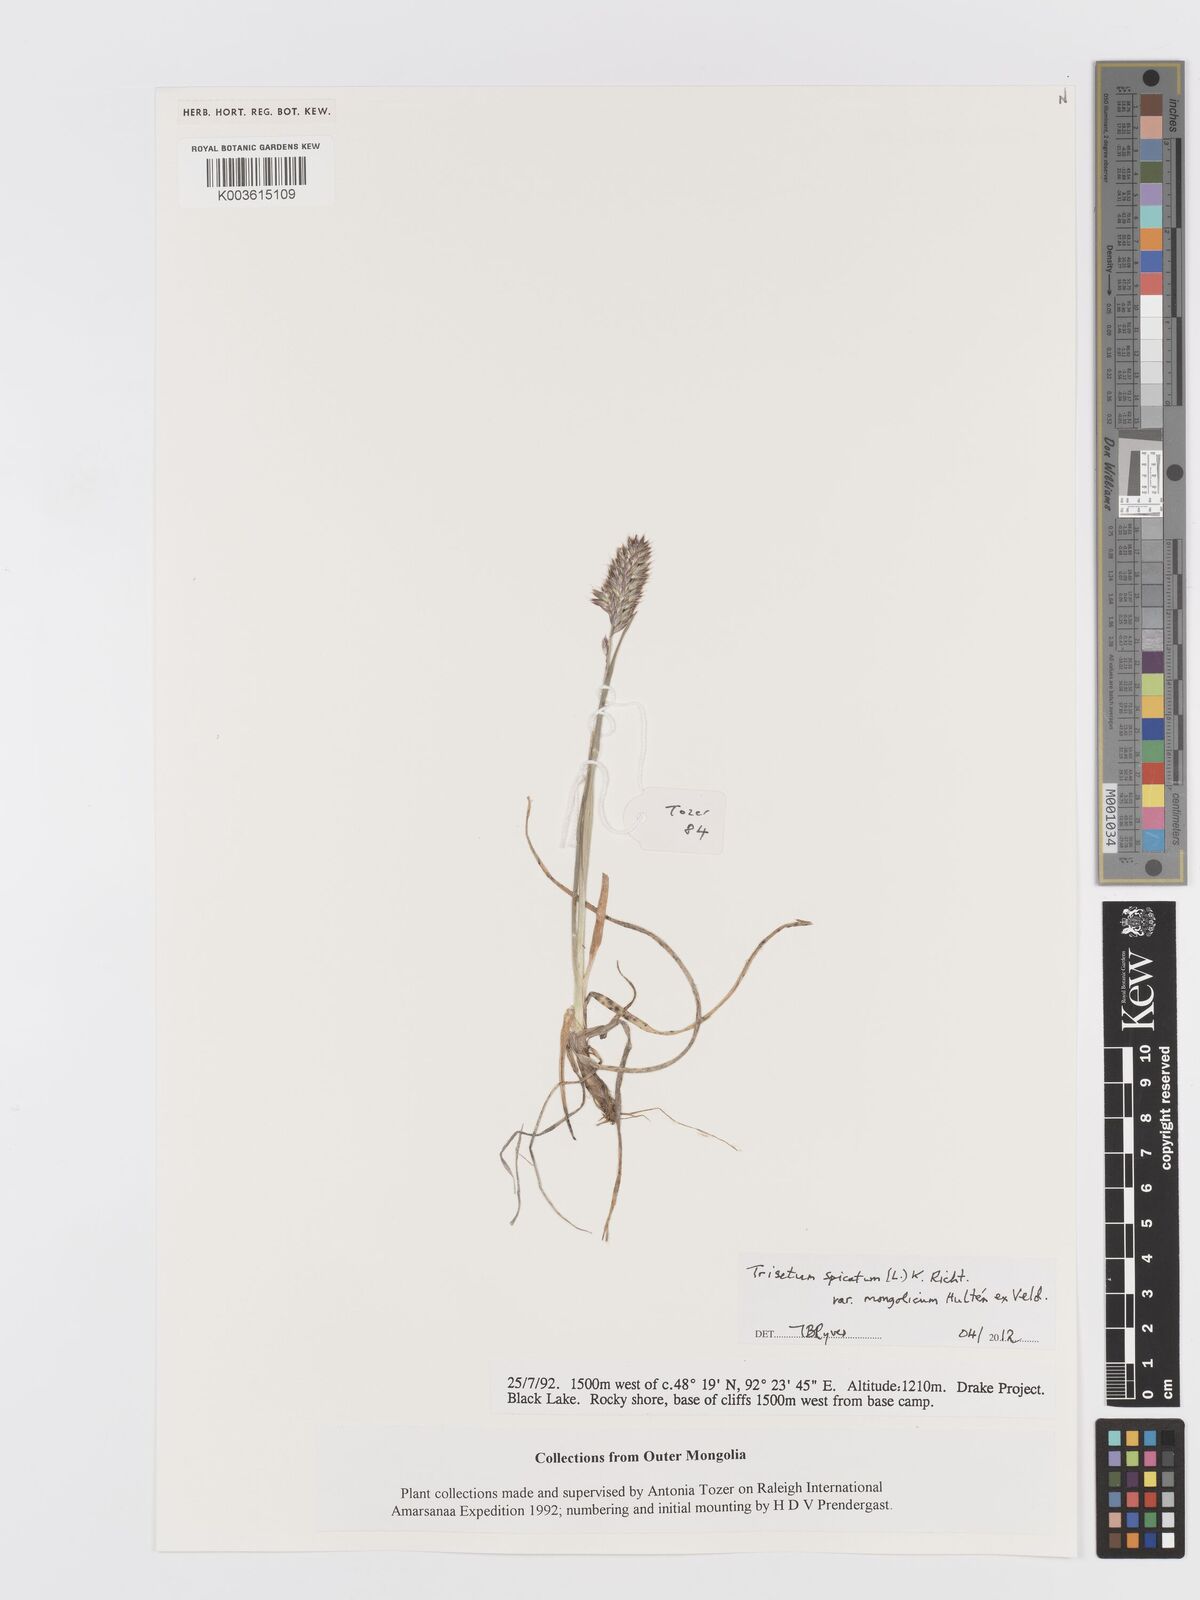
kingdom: Plantae
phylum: Tracheophyta
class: Liliopsida
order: Poales
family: Poaceae
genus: Koeleria
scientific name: Koeleria spicata
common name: Mountain trisetum
